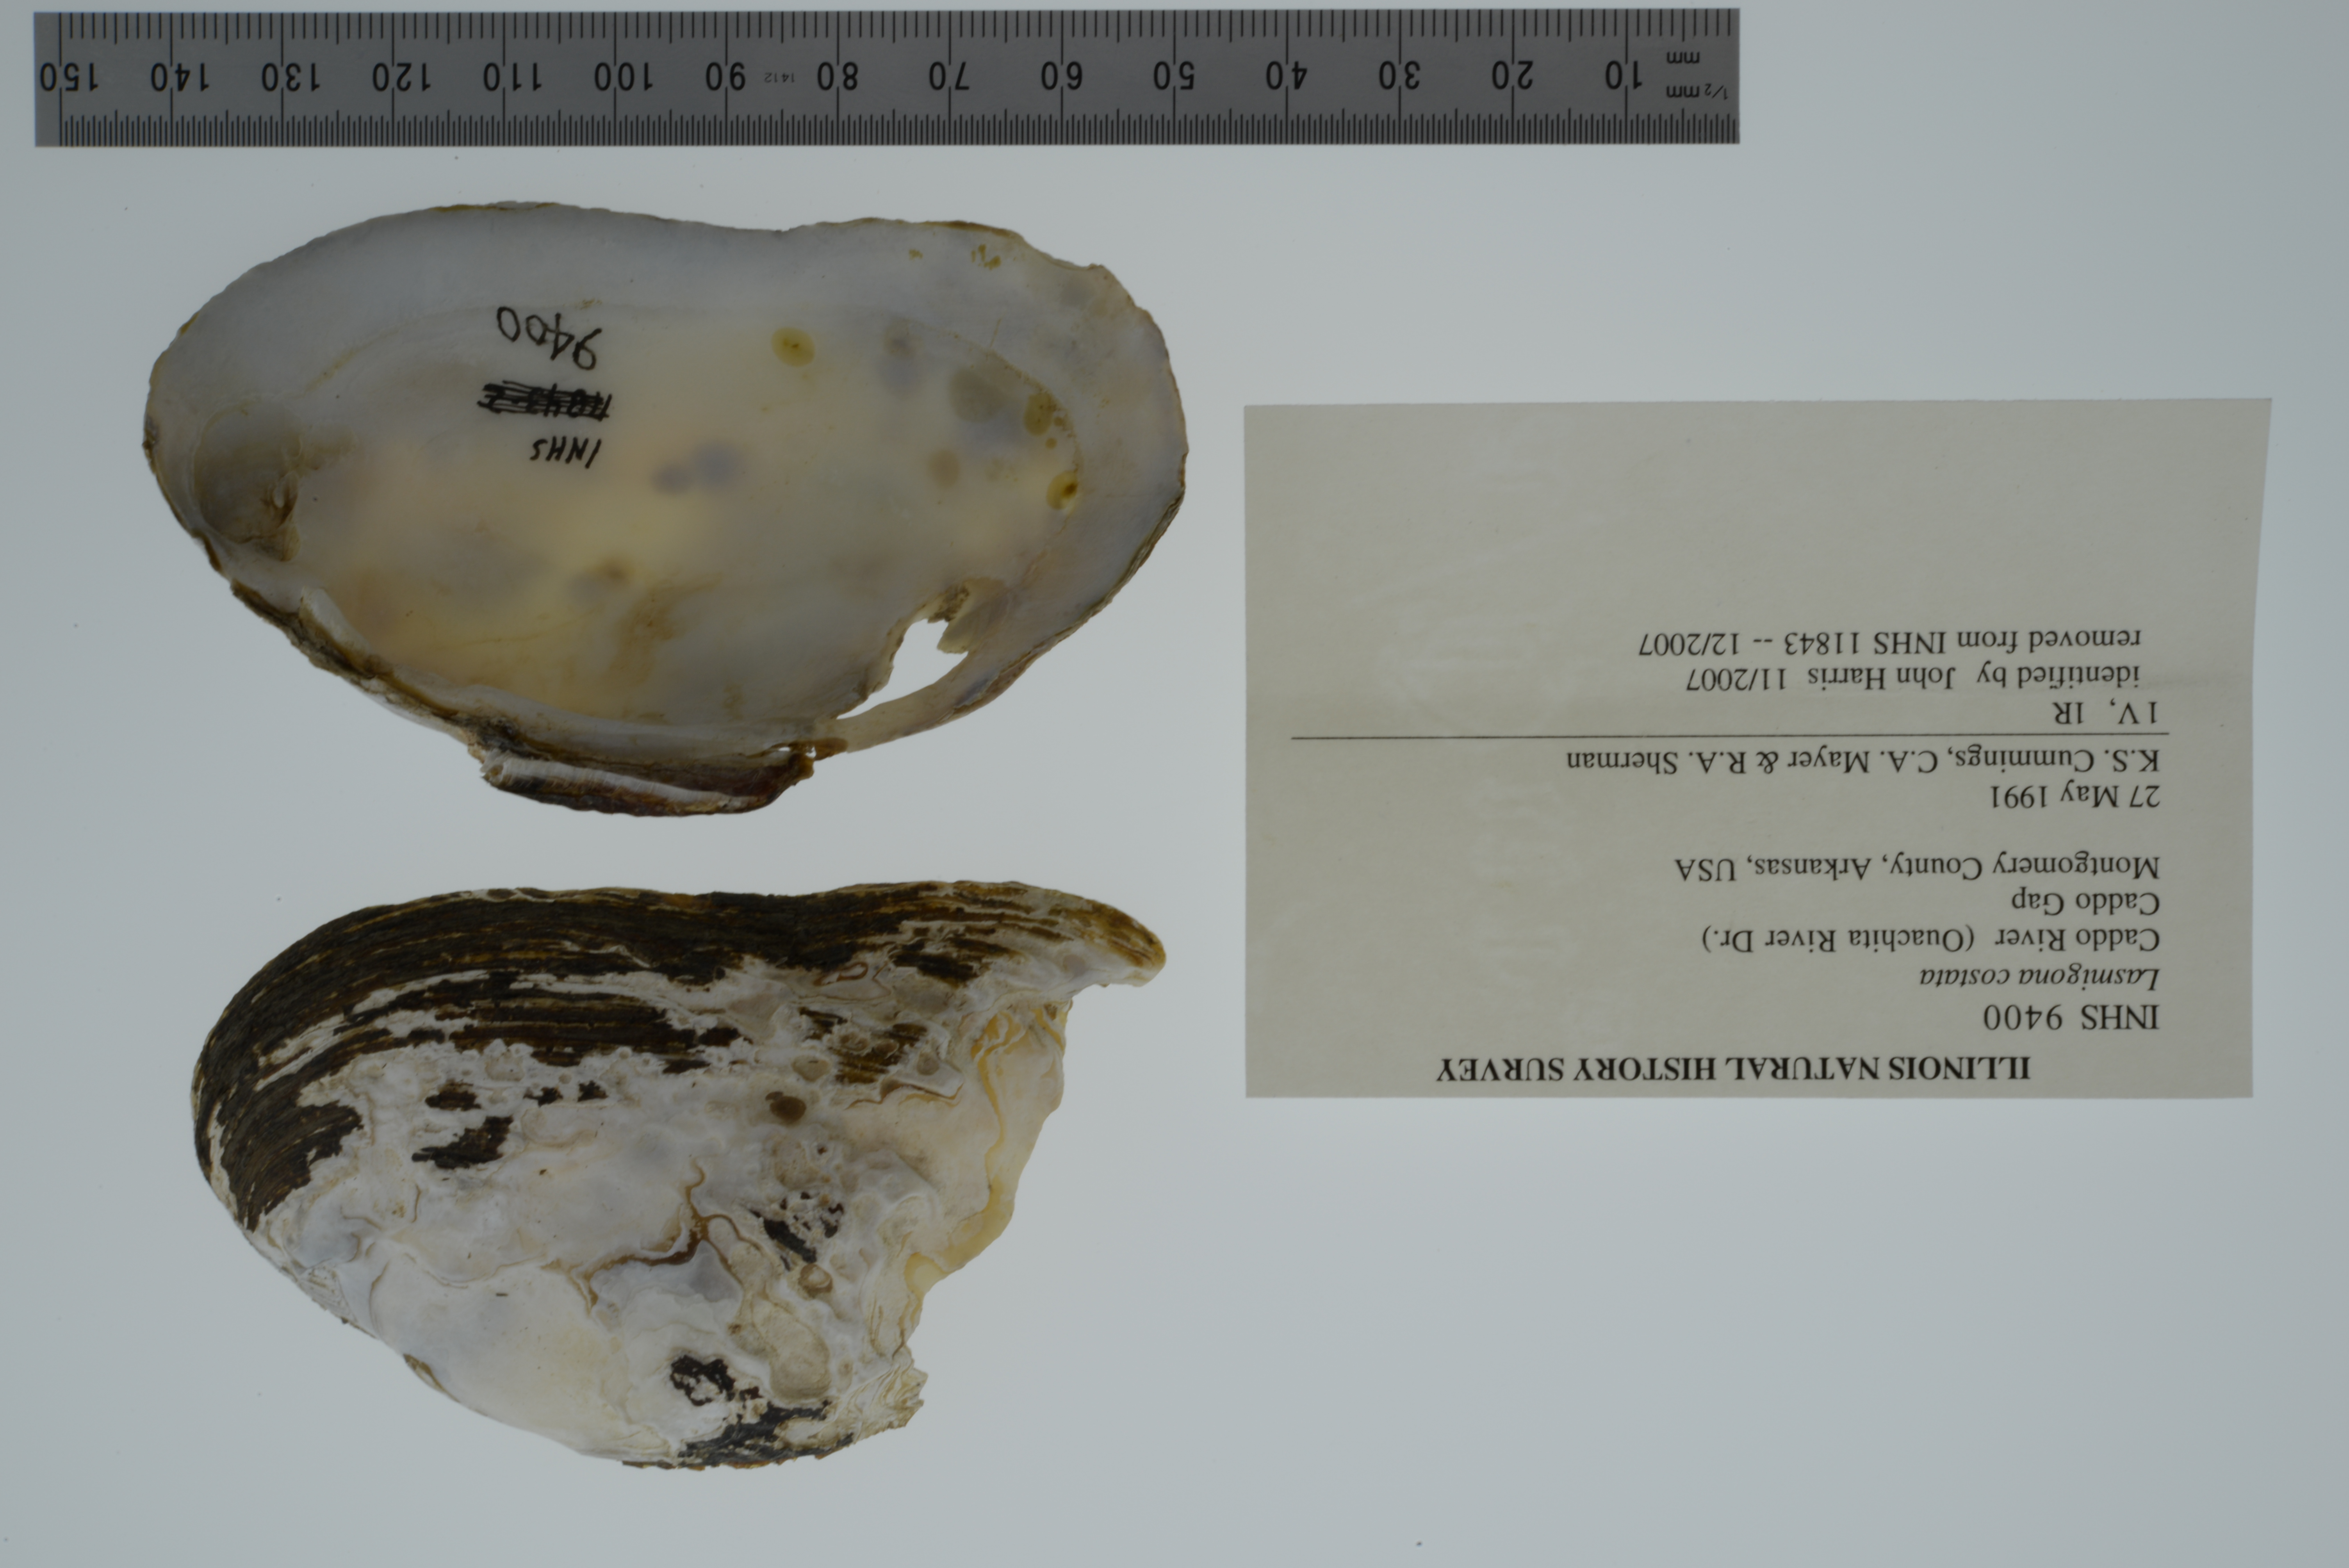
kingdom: Animalia
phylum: Mollusca
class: Bivalvia
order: Unionida
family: Unionidae
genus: Lasmigona
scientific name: Lasmigona costata
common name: Flutedshell
